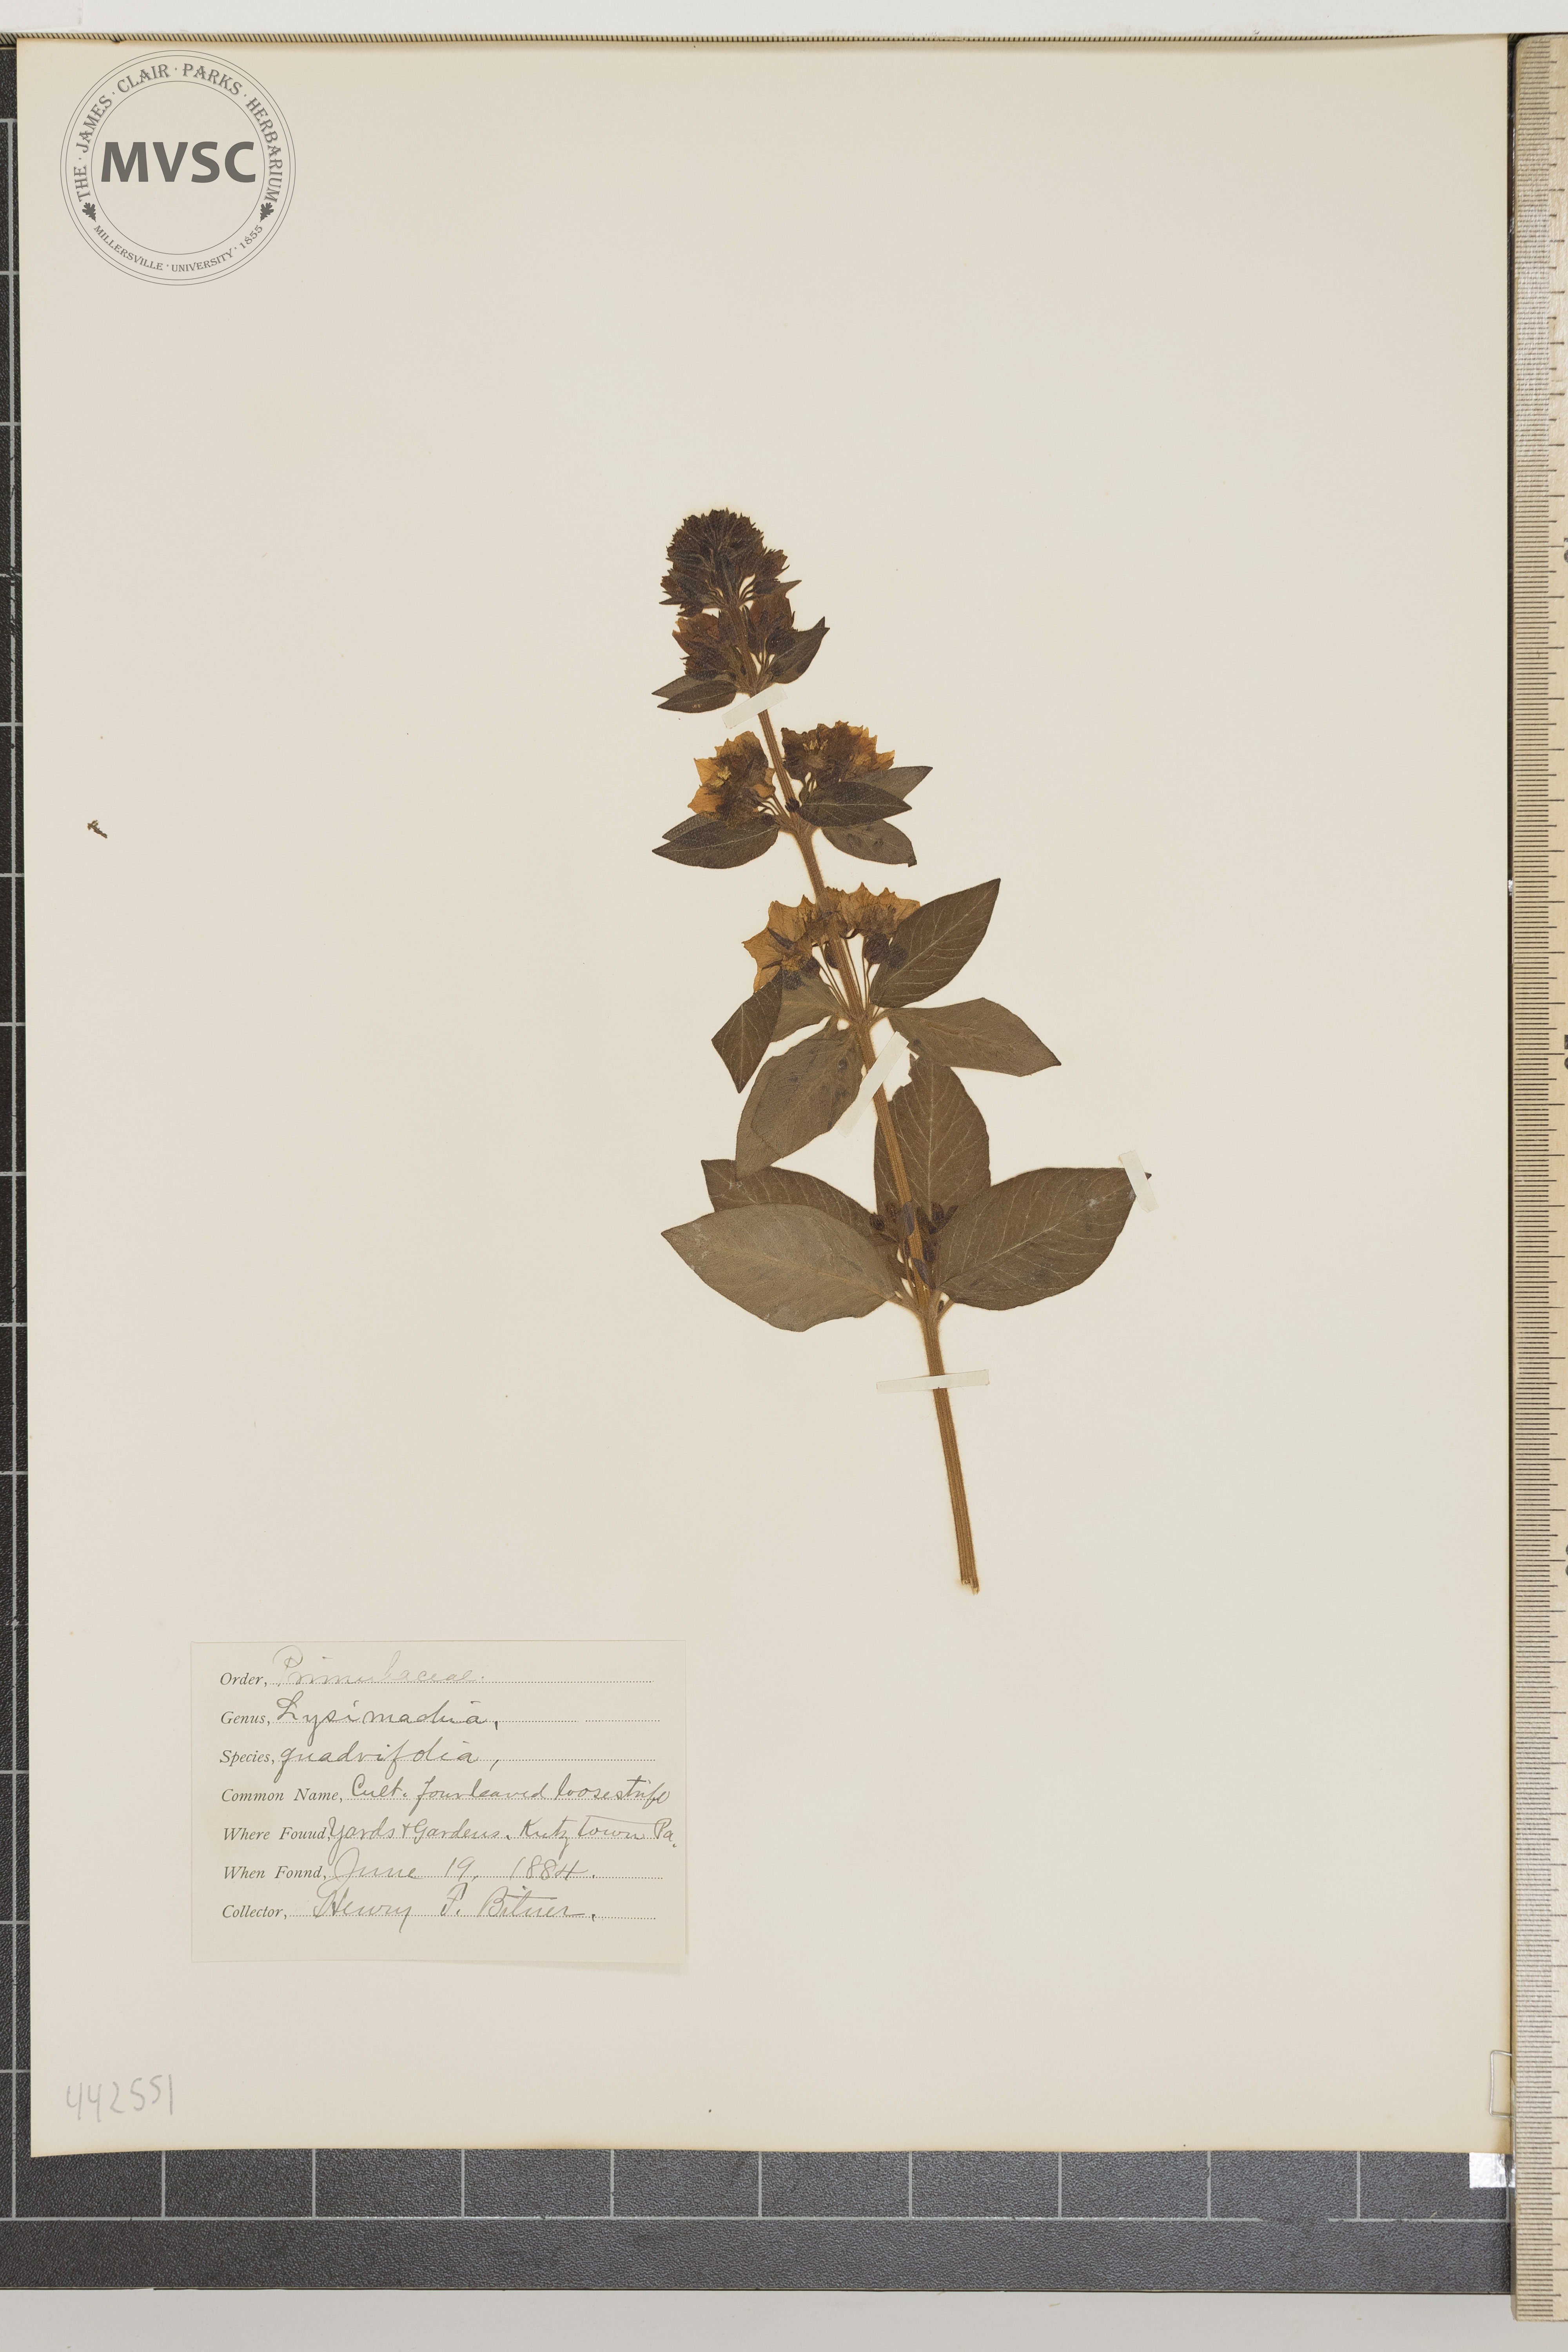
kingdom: Plantae
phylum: Tracheophyta
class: Magnoliopsida
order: Ericales
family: Primulaceae
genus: Lysimachia
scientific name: Lysimachia quadrifolia
